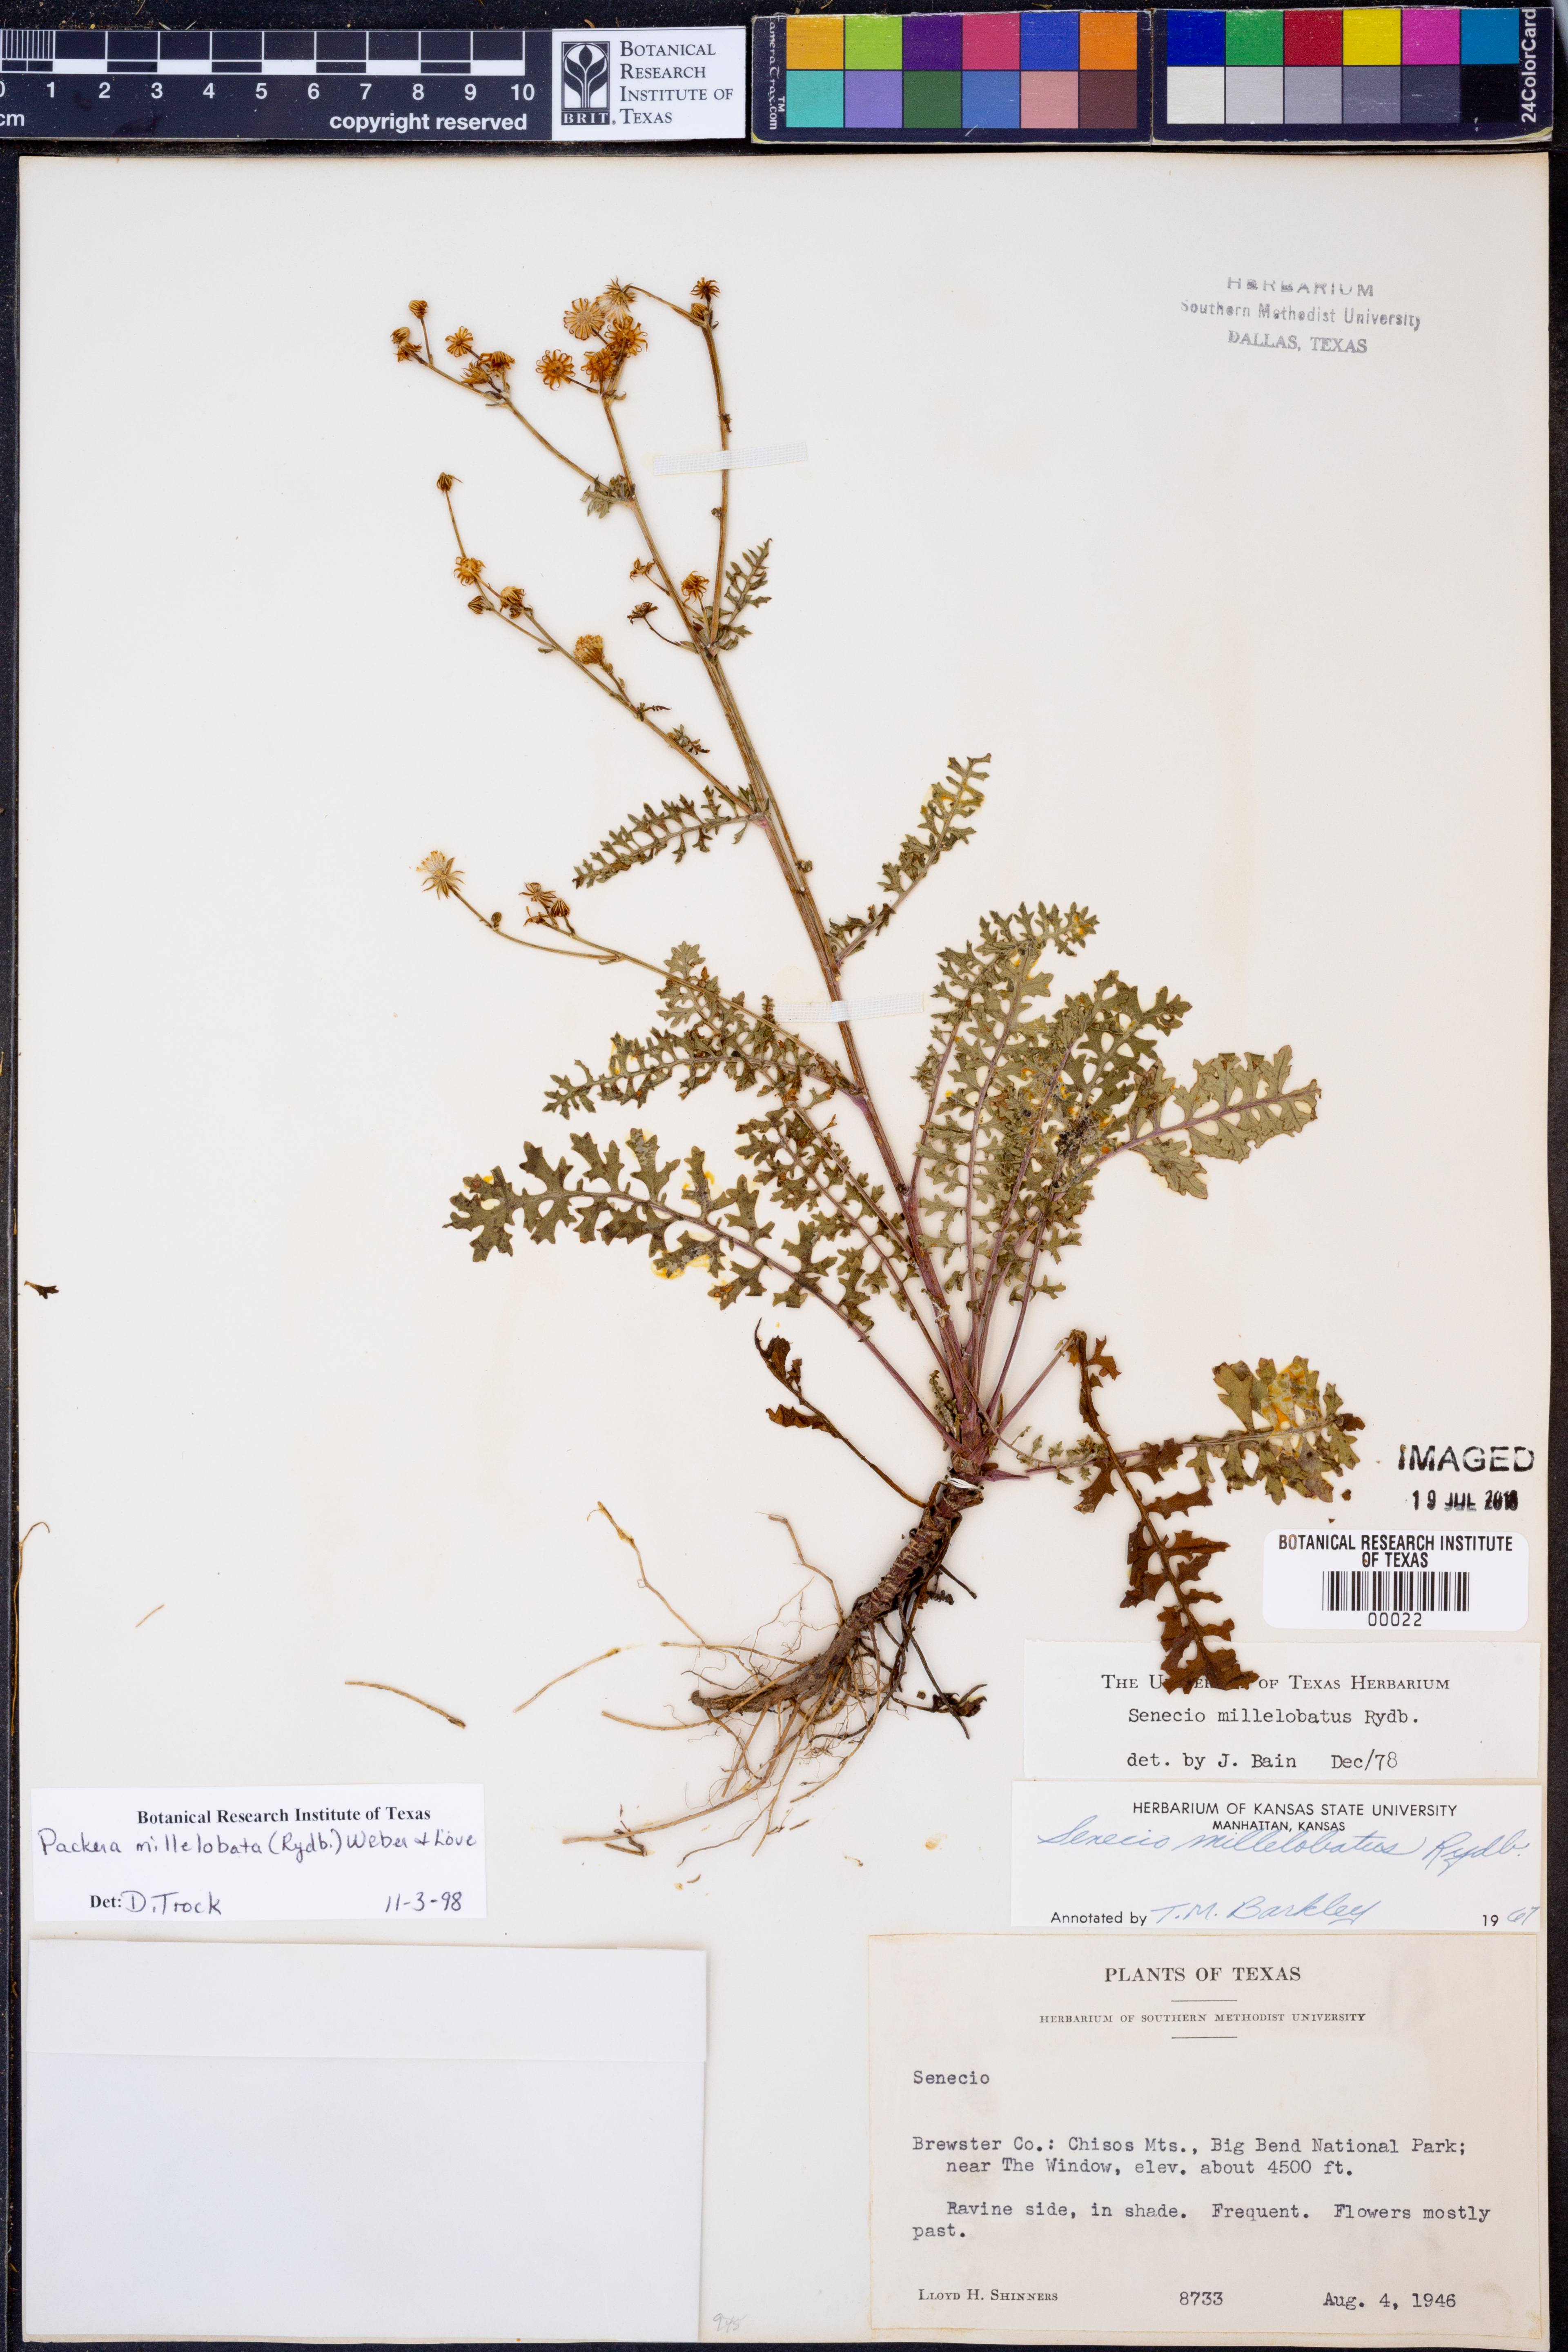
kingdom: Plantae
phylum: Tracheophyta
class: Magnoliopsida
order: Asterales
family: Asteraceae
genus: Packera
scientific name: Packera millelobata
